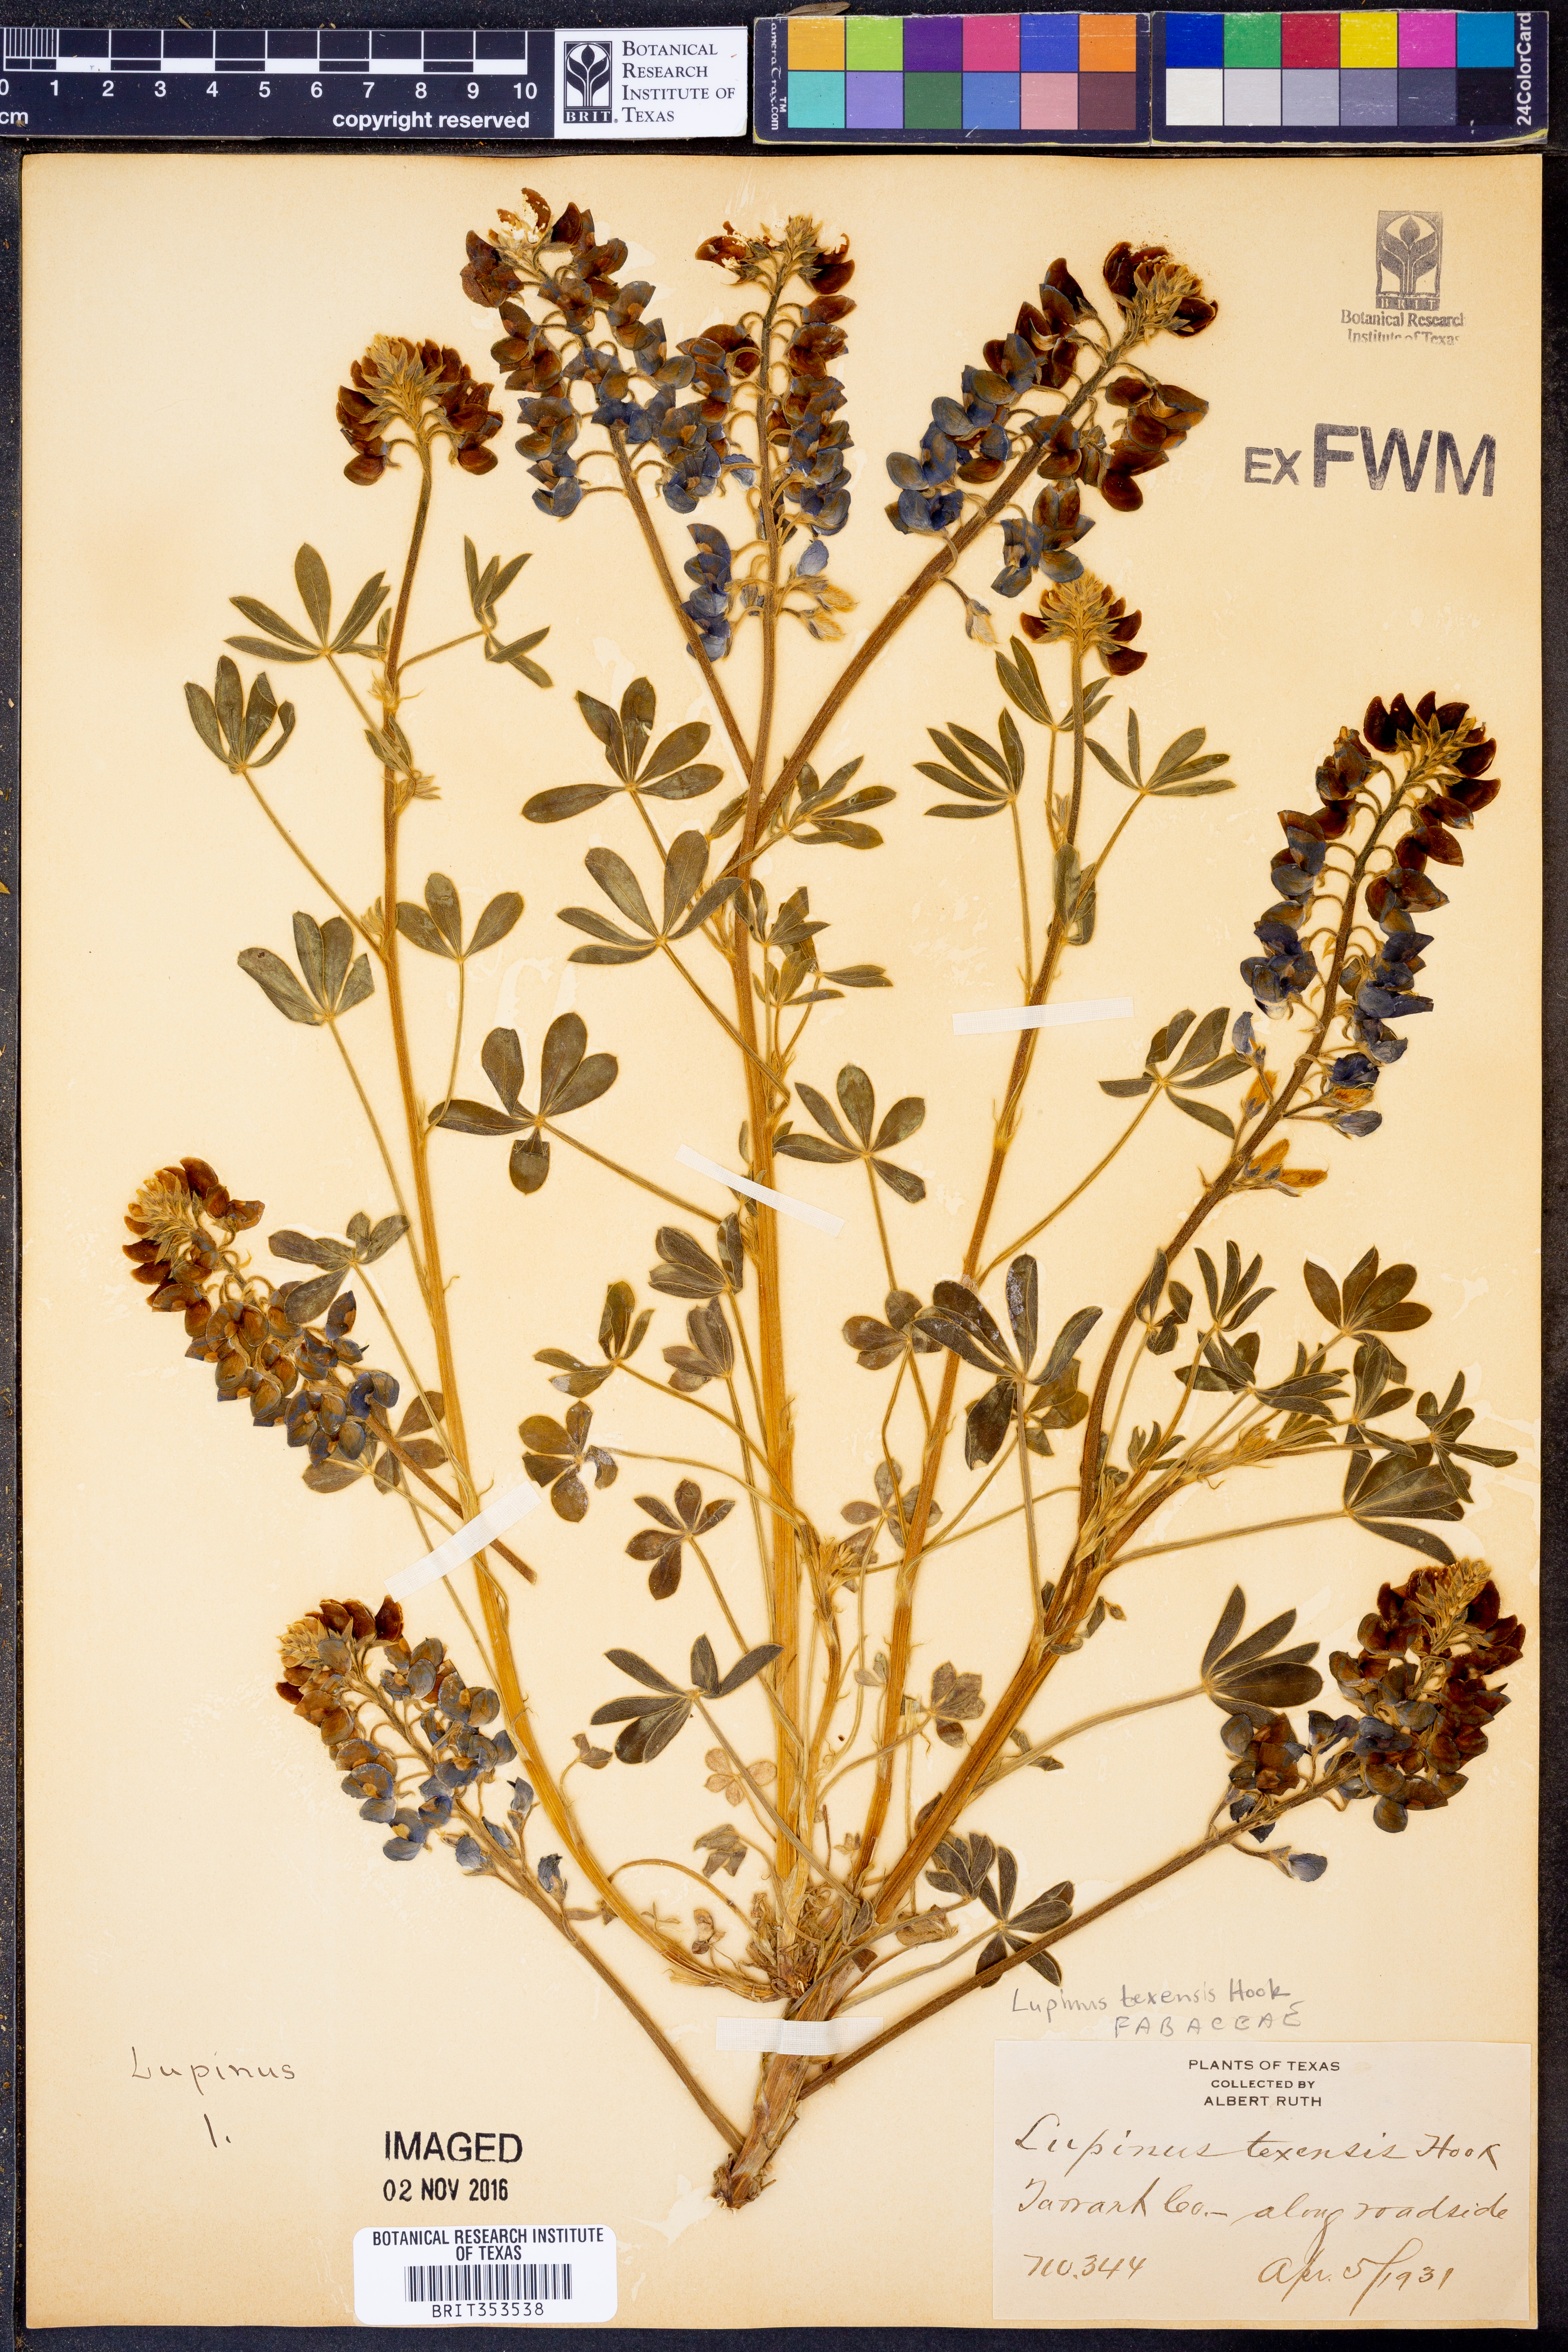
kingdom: Plantae
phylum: Tracheophyta
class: Magnoliopsida
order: Fabales
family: Fabaceae
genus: Lupinus
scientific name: Lupinus texensis
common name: Texas bluebonnet
